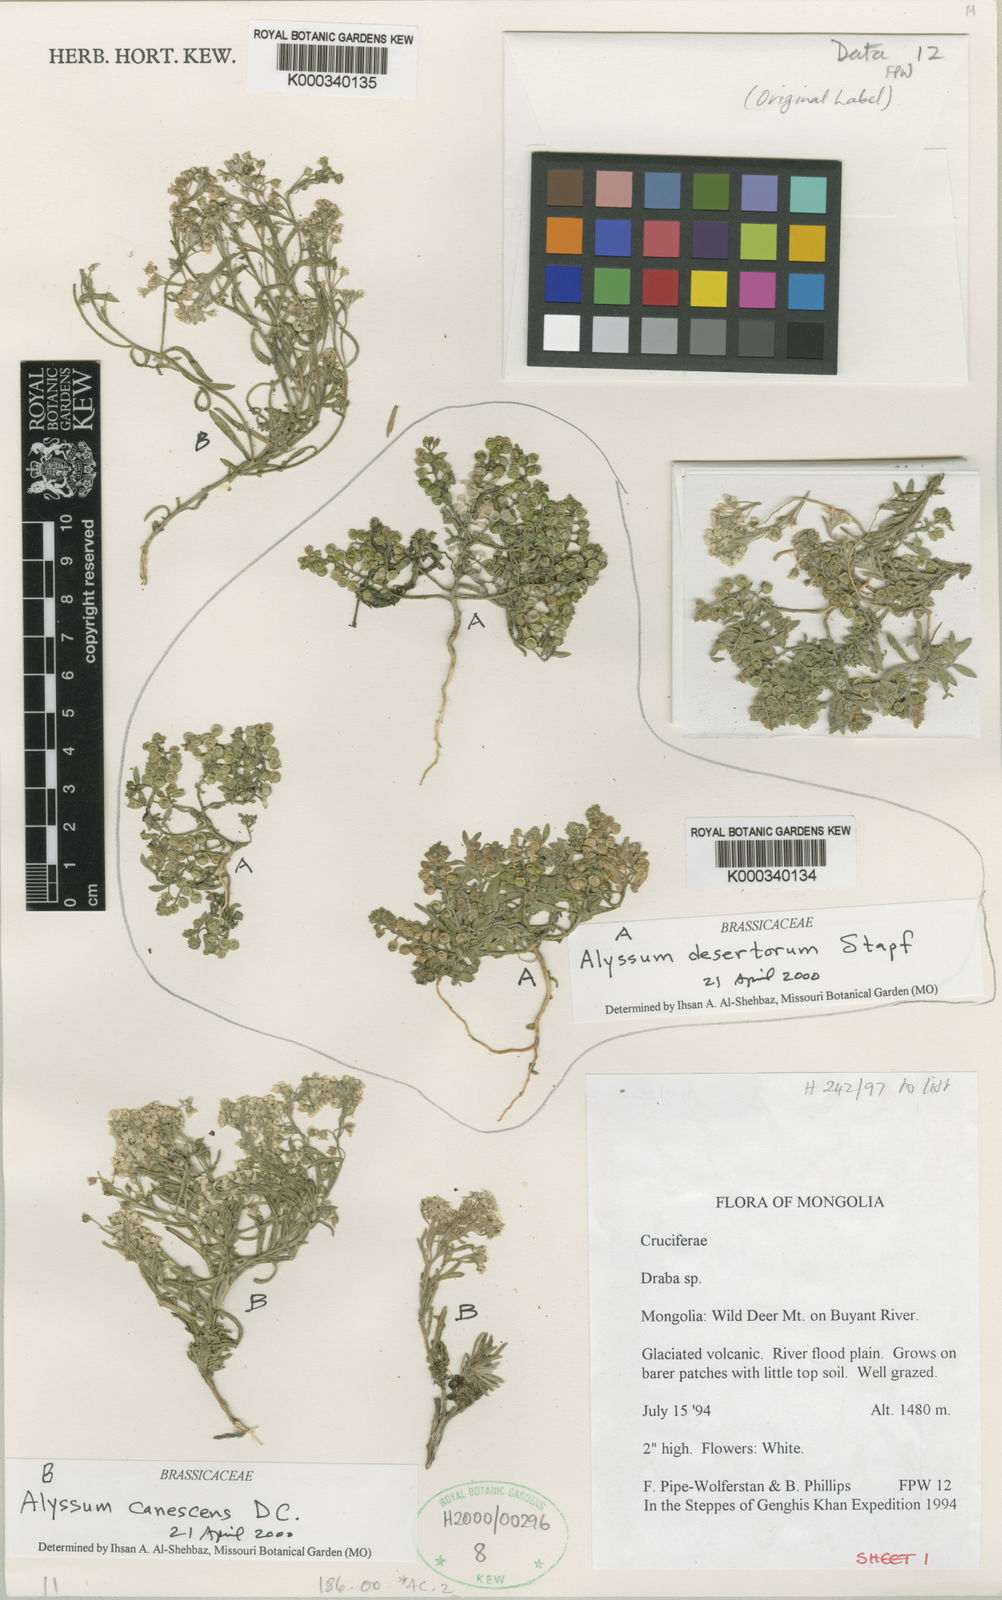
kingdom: Plantae
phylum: Tracheophyta
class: Magnoliopsida
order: Brassicales
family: Brassicaceae
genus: Alyssum
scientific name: Alyssum turkestanicum
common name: Desert alyssum
